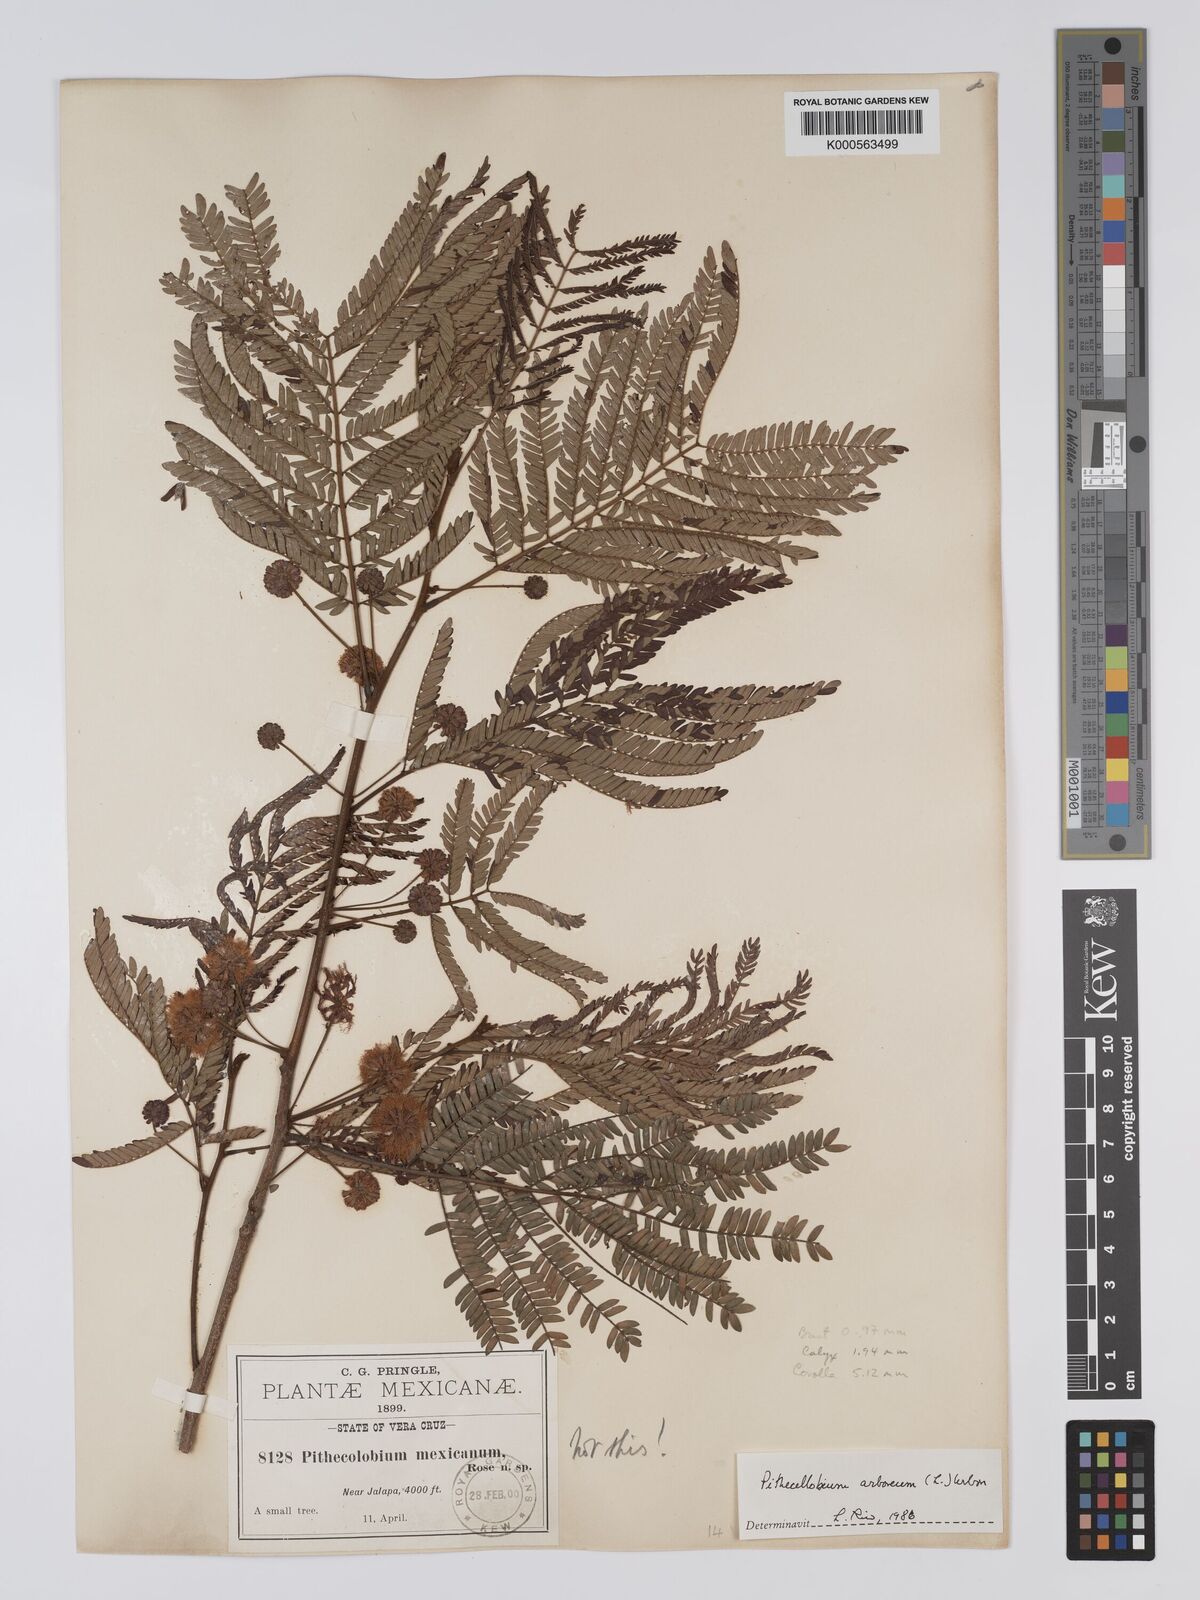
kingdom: Plantae
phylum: Tracheophyta
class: Magnoliopsida
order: Fabales
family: Fabaceae
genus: Cojoba
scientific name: Cojoba arborea
